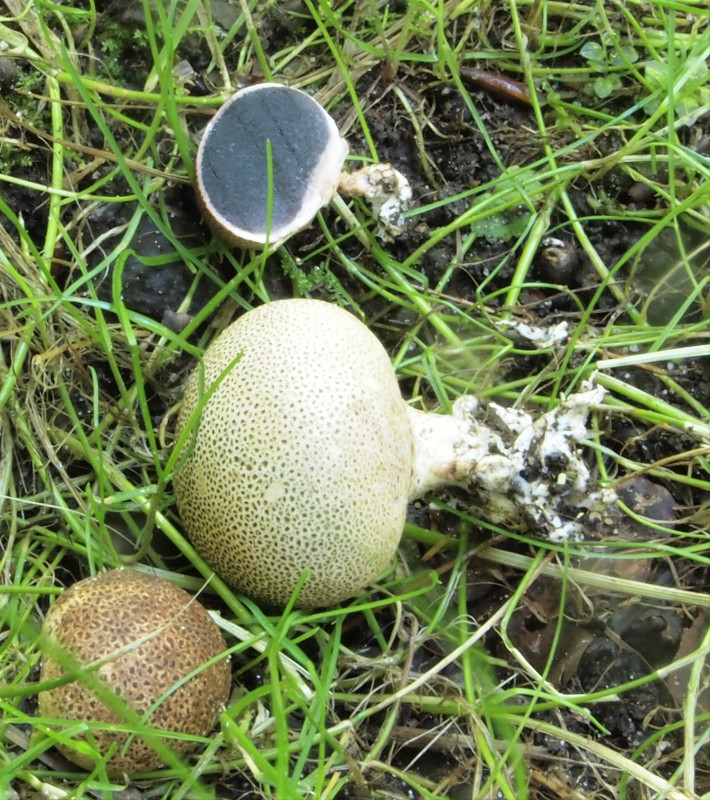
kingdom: Fungi
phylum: Basidiomycota
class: Agaricomycetes
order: Boletales
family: Sclerodermataceae
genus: Scleroderma
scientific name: Scleroderma verrucosum
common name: stilket bruskbold
